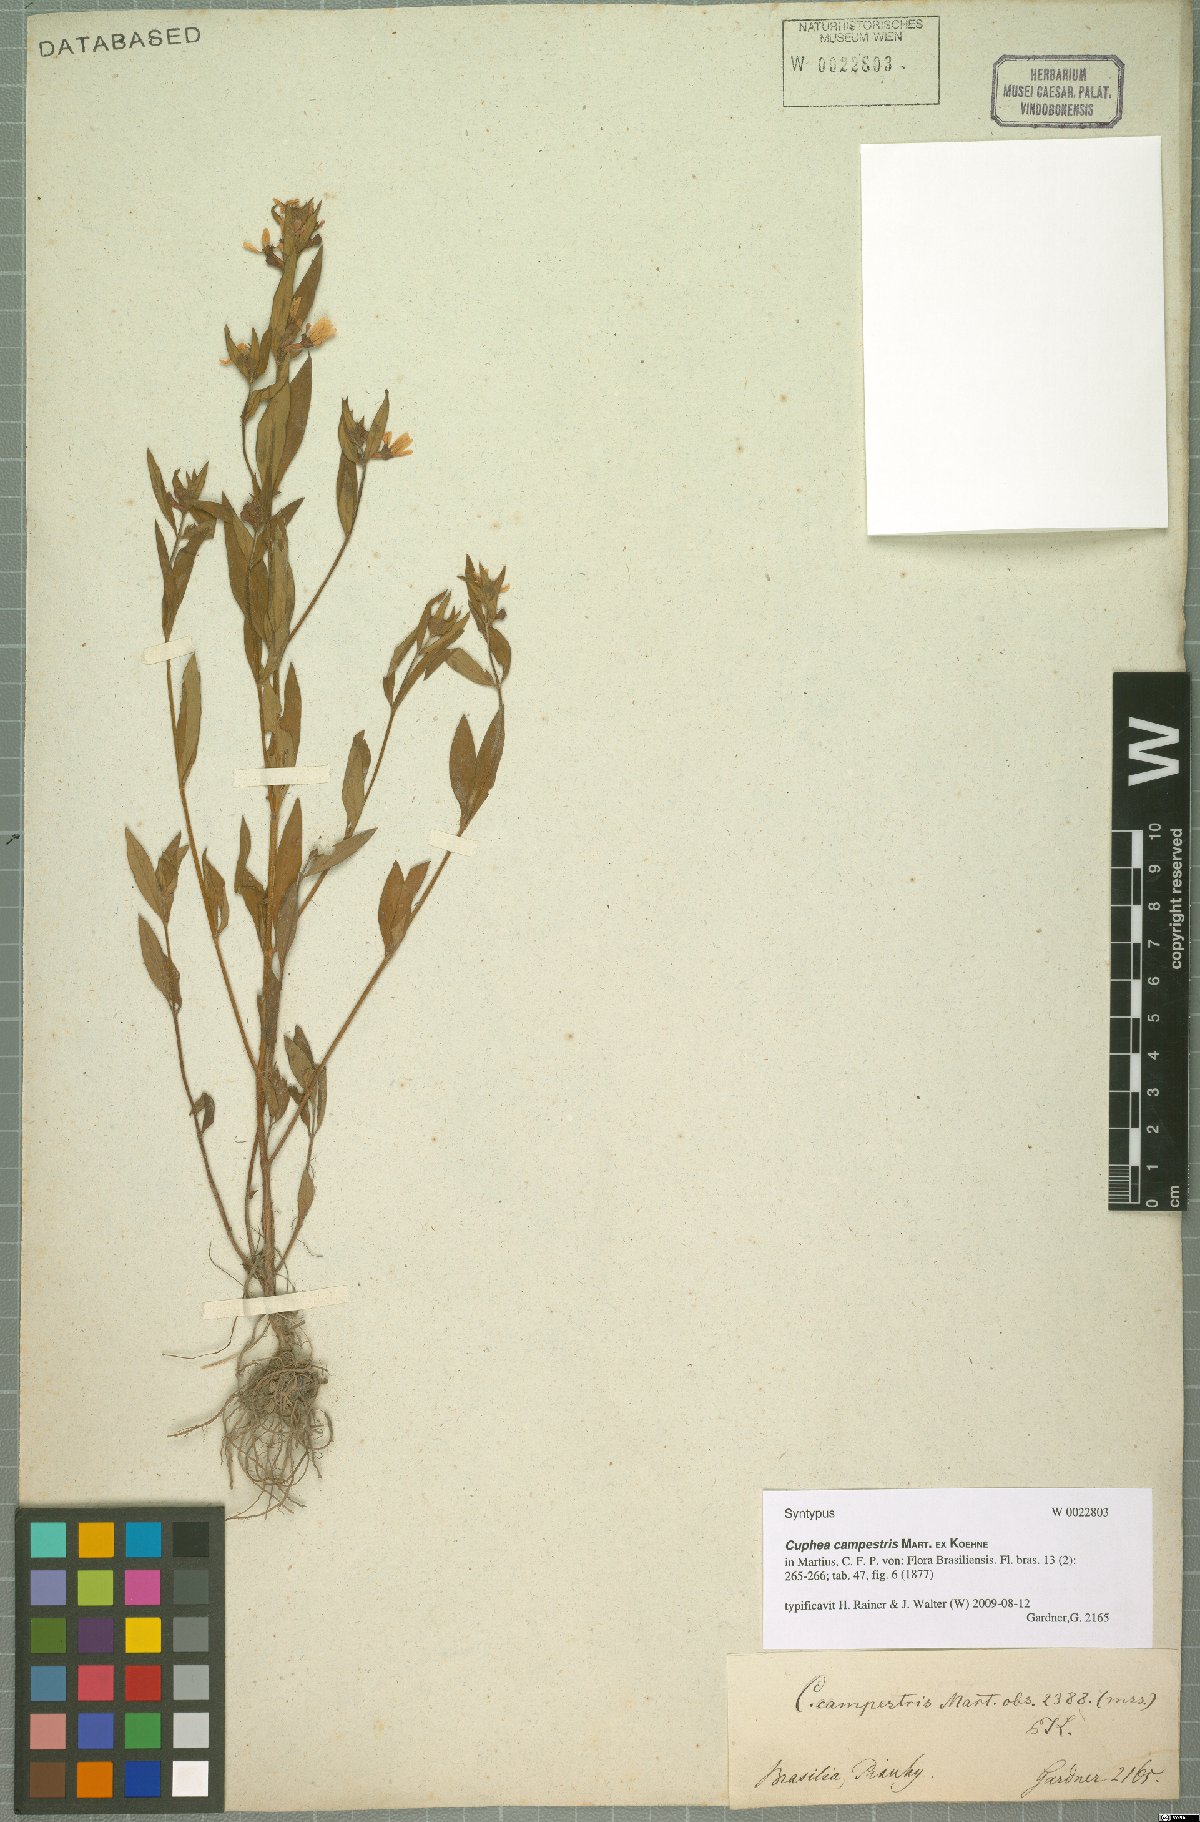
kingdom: Plantae
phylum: Tracheophyta
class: Magnoliopsida
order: Myrtales
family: Lythraceae
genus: Cuphea
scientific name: Cuphea campestris
